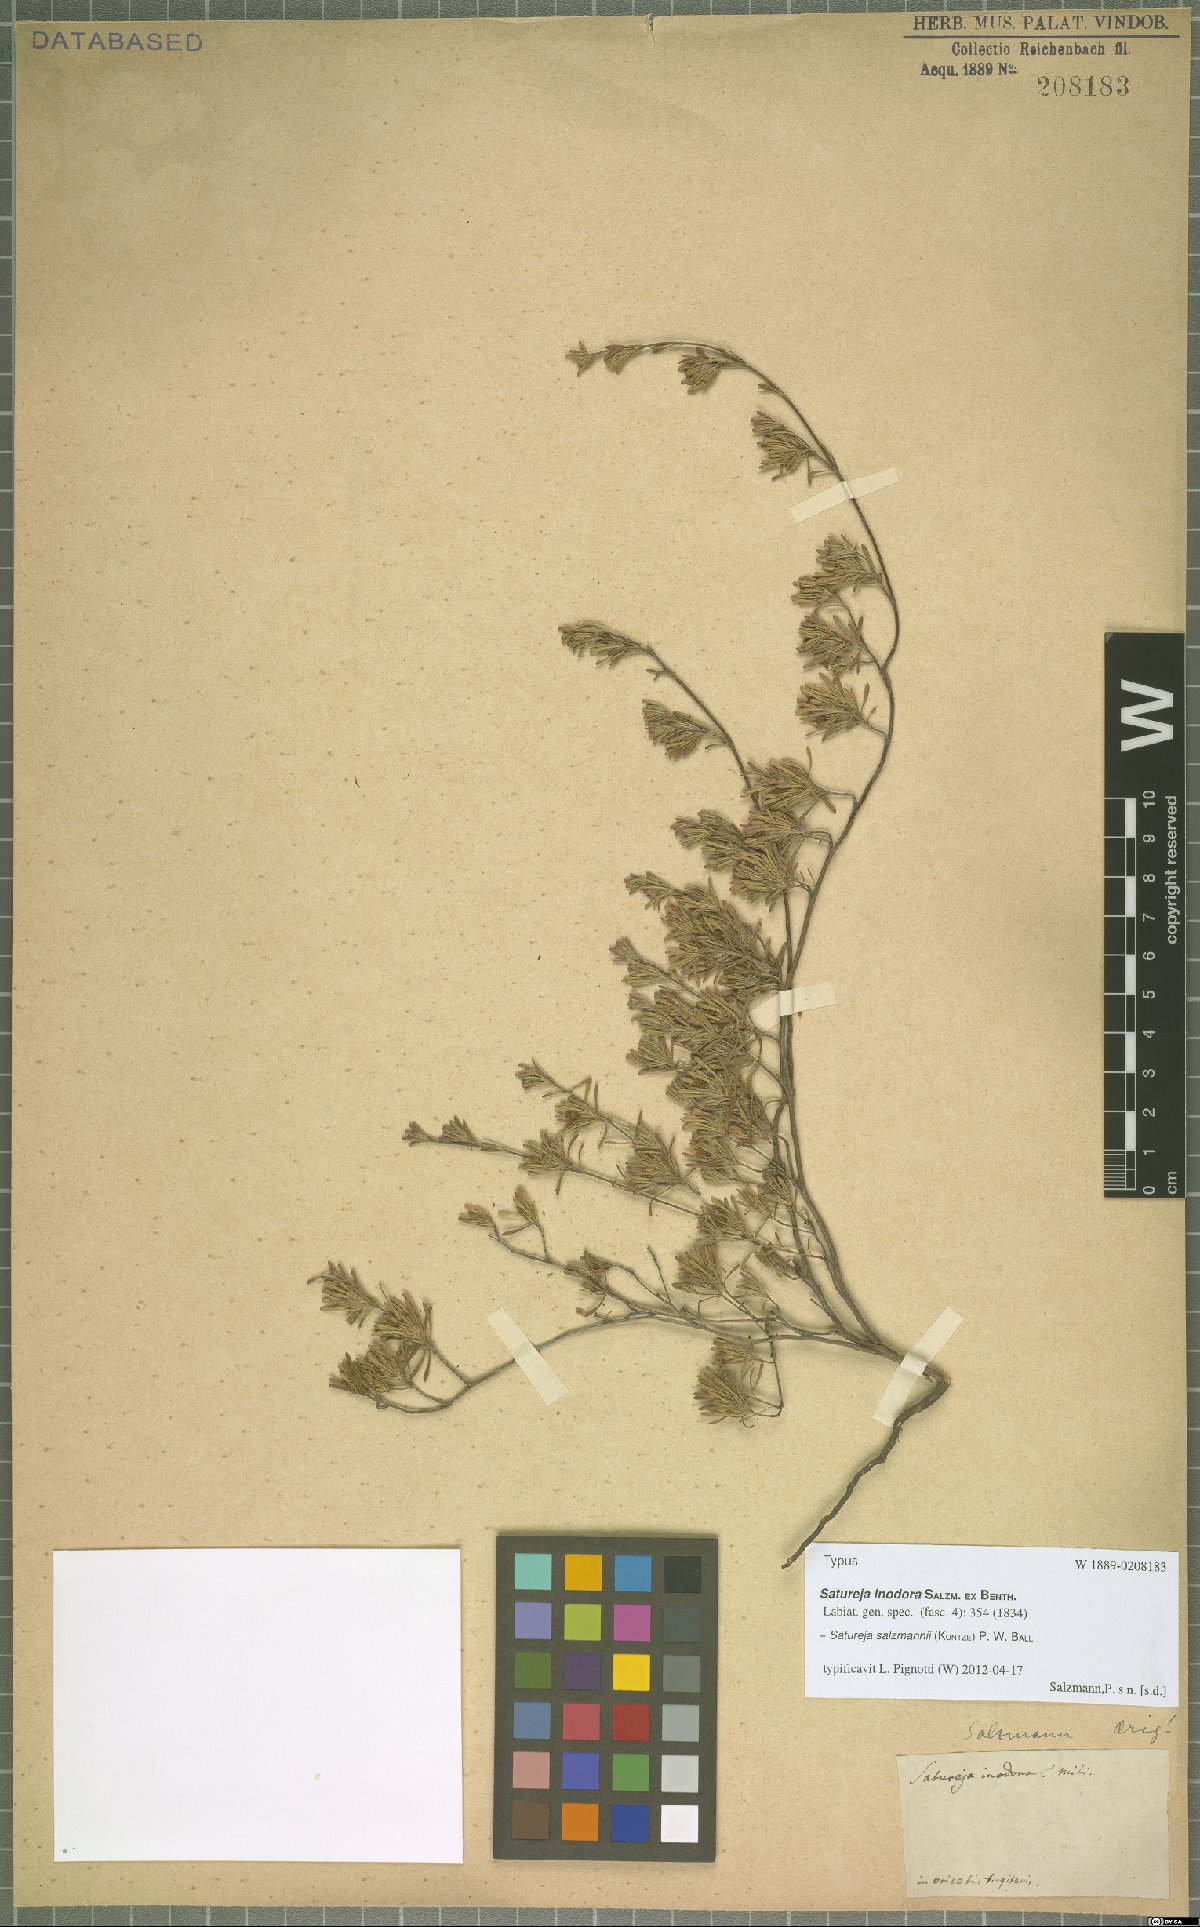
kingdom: Plantae
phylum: Tracheophyta
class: Magnoliopsida
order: Lamiales
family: Lamiaceae
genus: Satureja
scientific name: Satureja salzmannii
